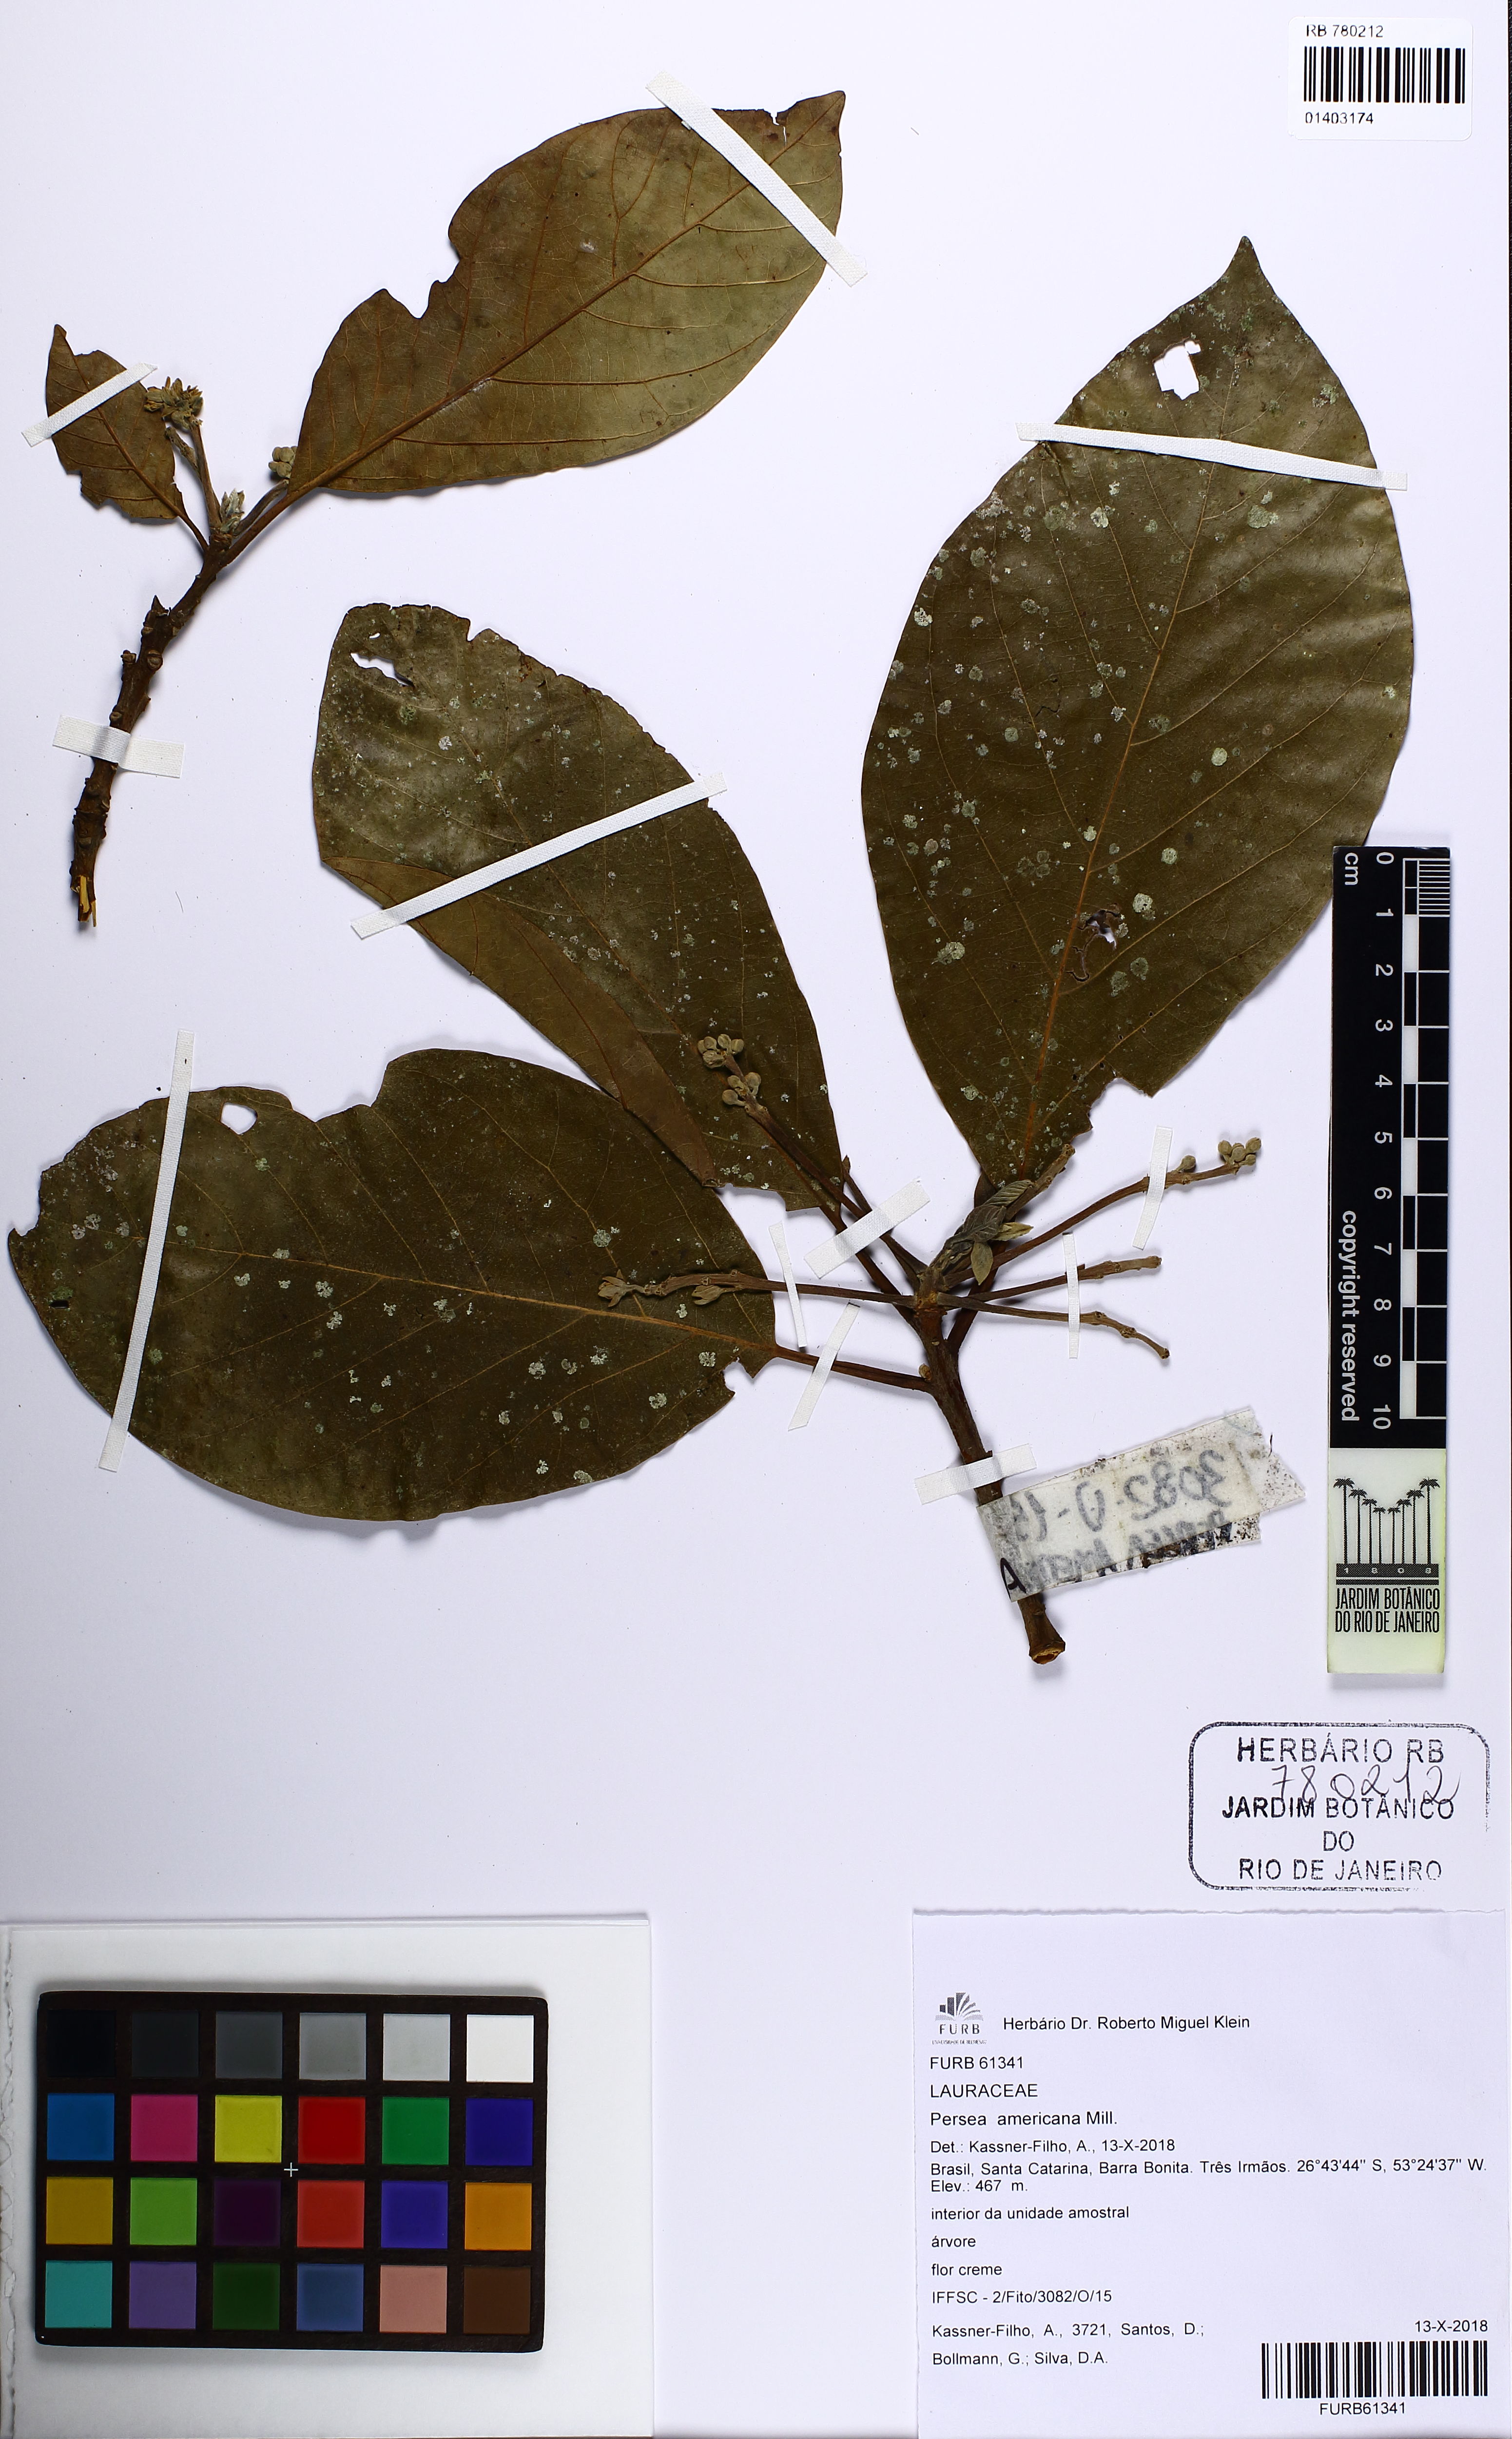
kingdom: Plantae
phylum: Tracheophyta
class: Magnoliopsida
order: Laurales
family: Lauraceae
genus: Persea
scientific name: Persea americana
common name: Avocado
